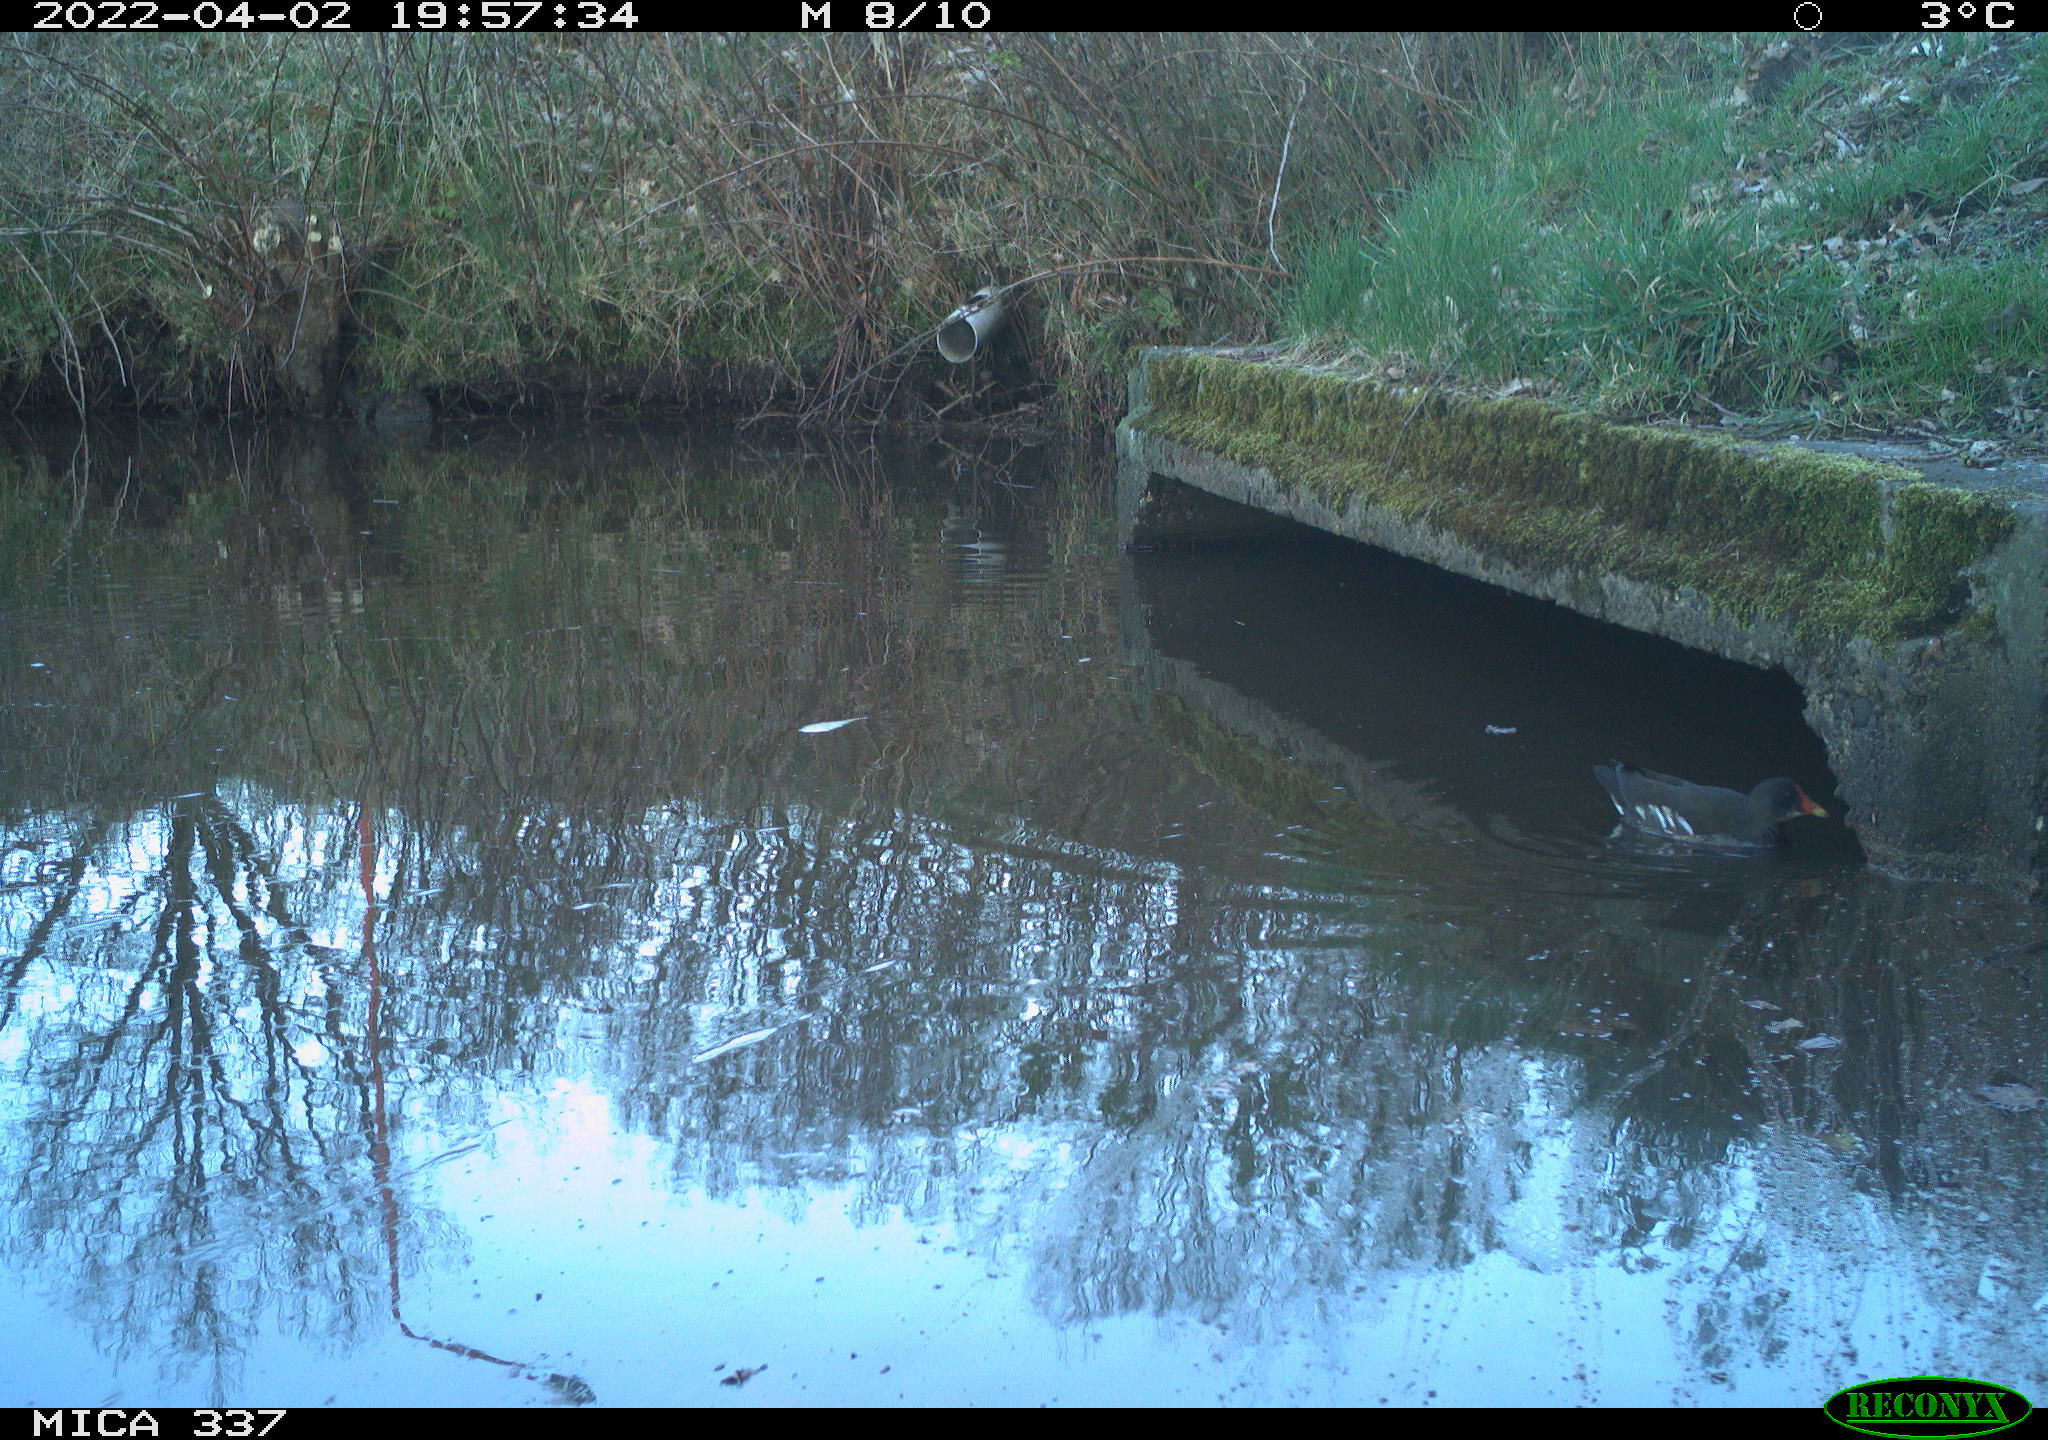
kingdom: Animalia
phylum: Chordata
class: Aves
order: Gruiformes
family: Rallidae
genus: Gallinula
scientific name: Gallinula chloropus
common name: Common moorhen
